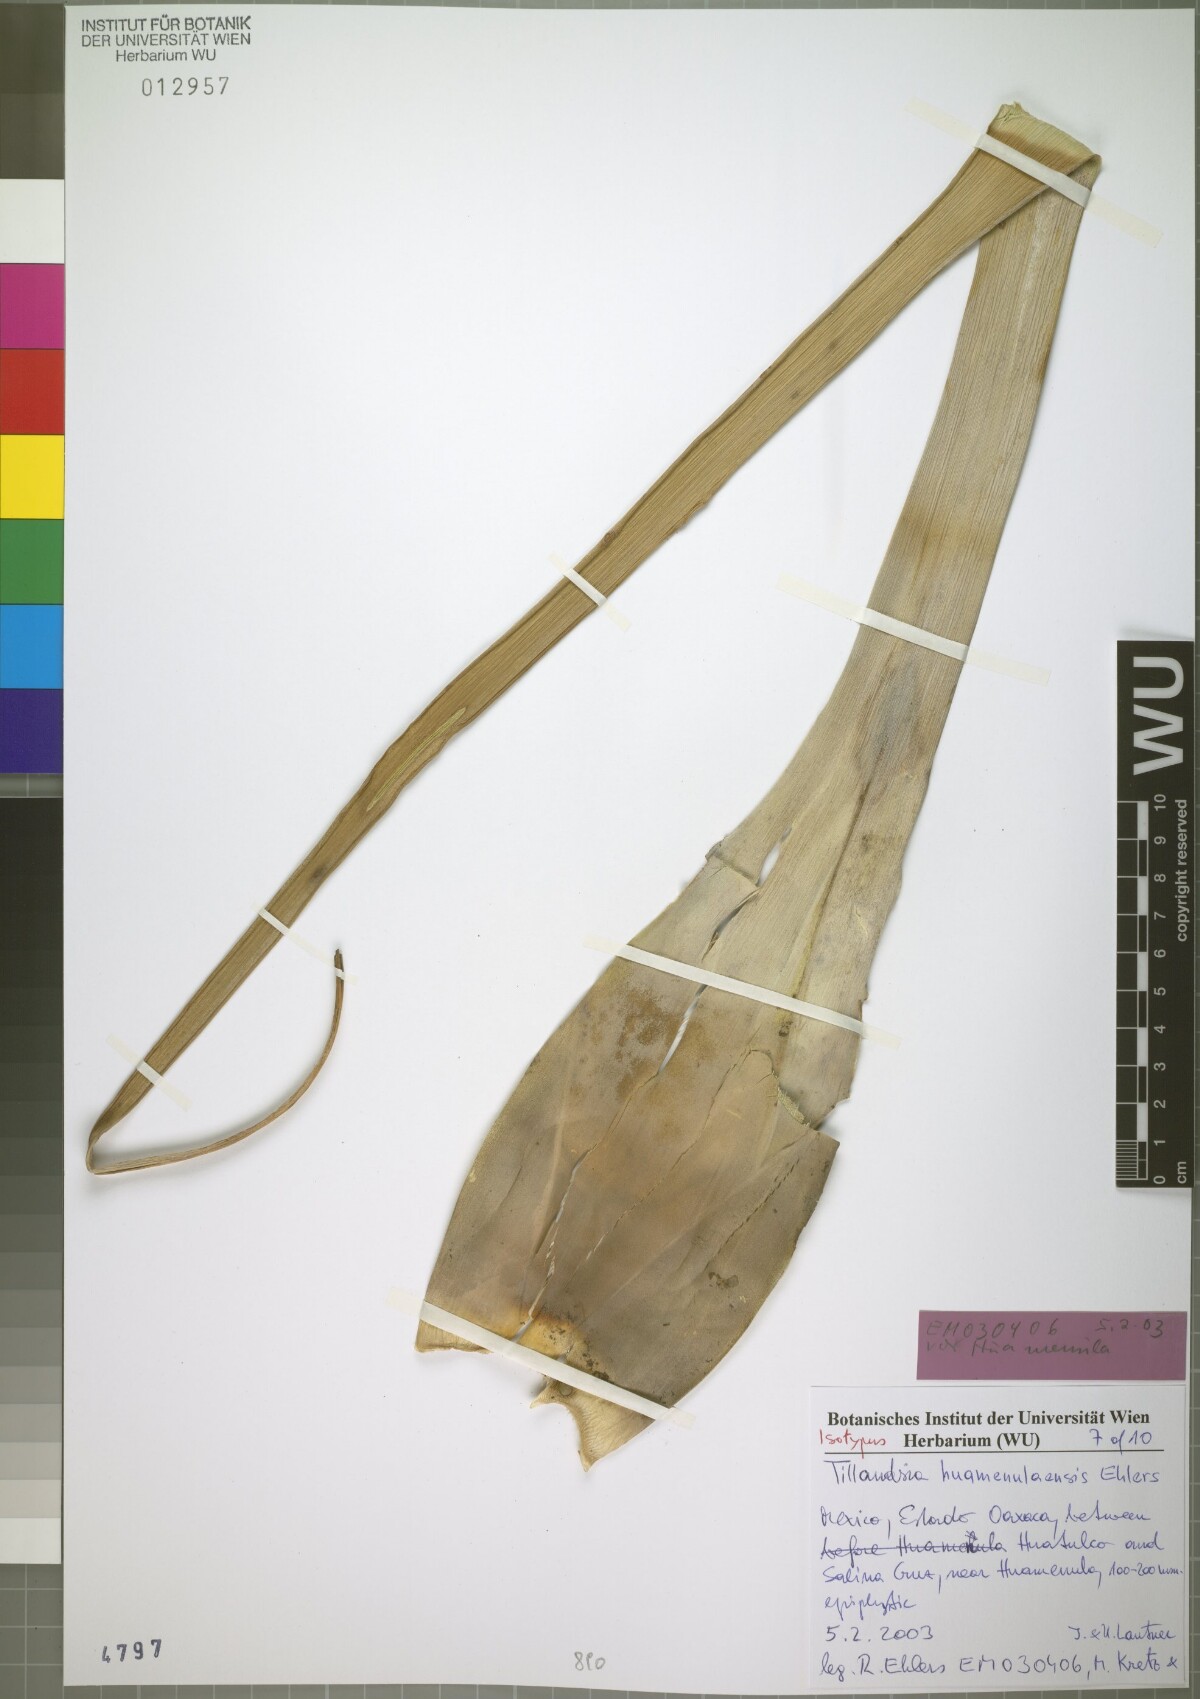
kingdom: Plantae
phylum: Tracheophyta
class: Liliopsida
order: Poales
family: Bromeliaceae
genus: Tillandsia
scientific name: Tillandsia huamenulaensis
